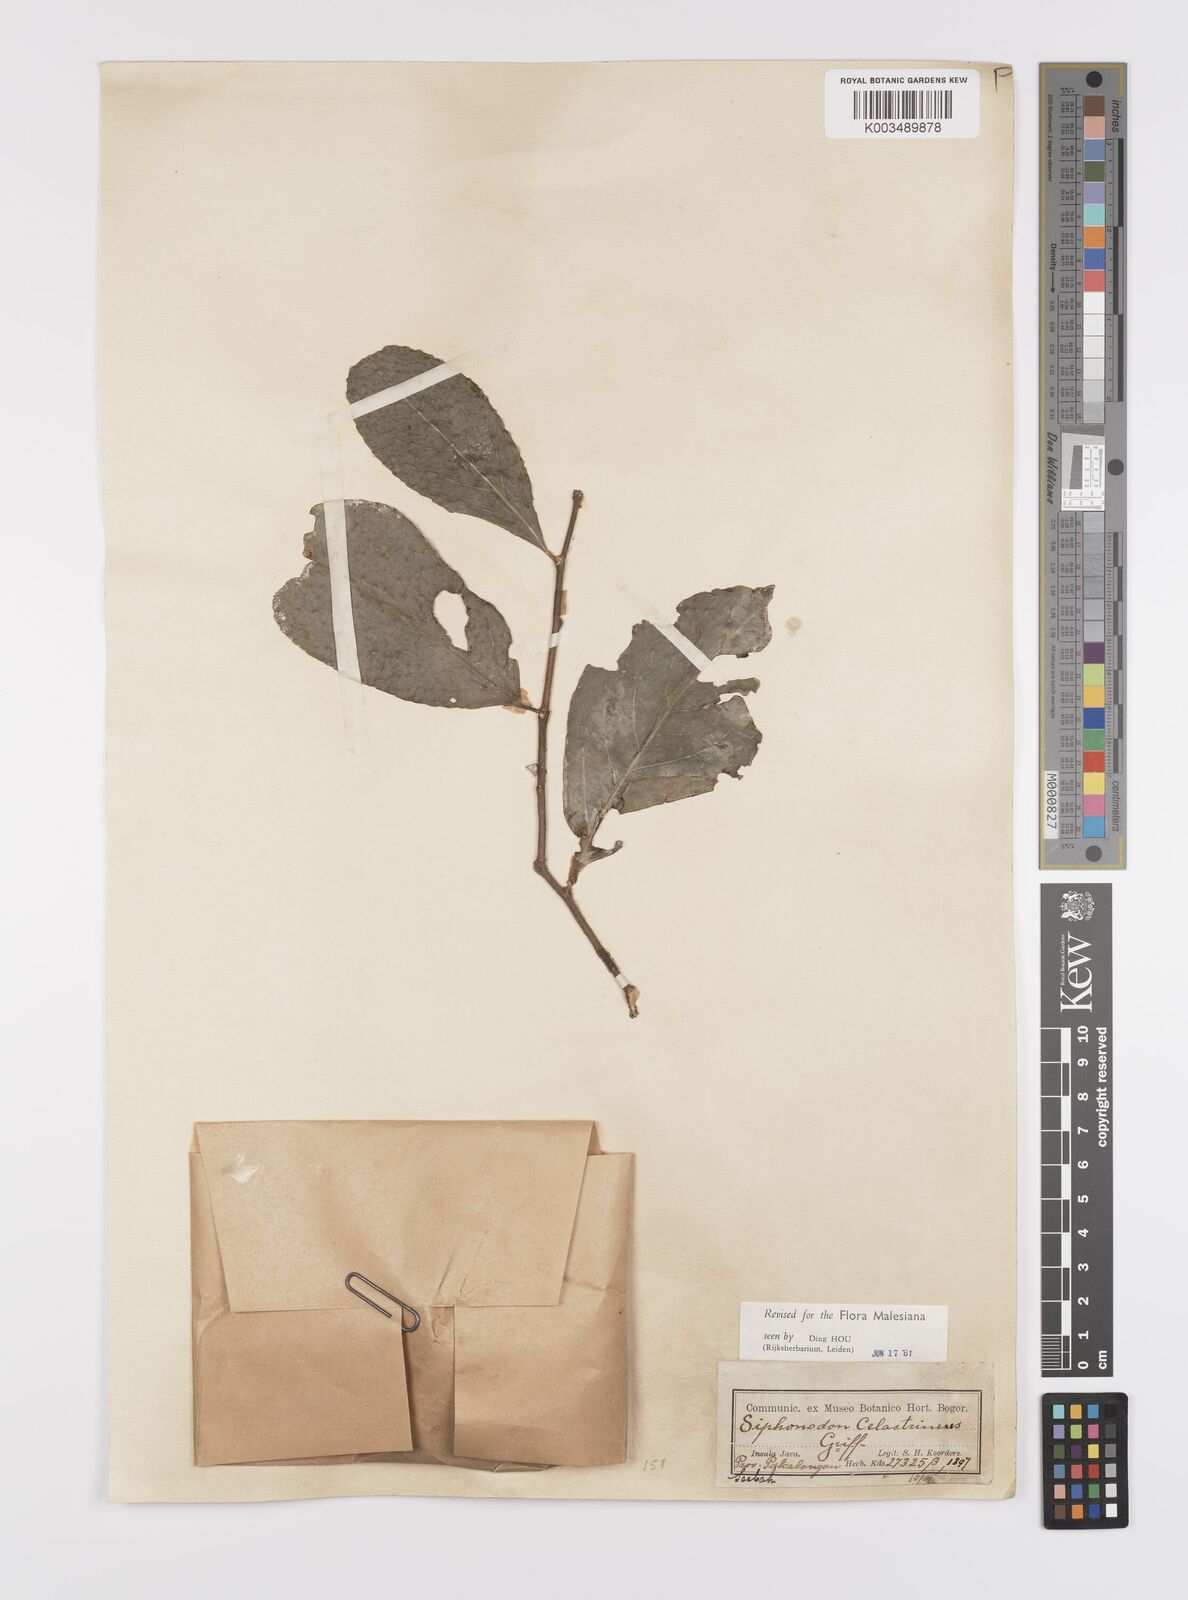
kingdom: Plantae
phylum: Tracheophyta
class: Magnoliopsida
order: Celastrales
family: Celastraceae
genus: Siphonodon
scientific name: Siphonodon celastrineus
